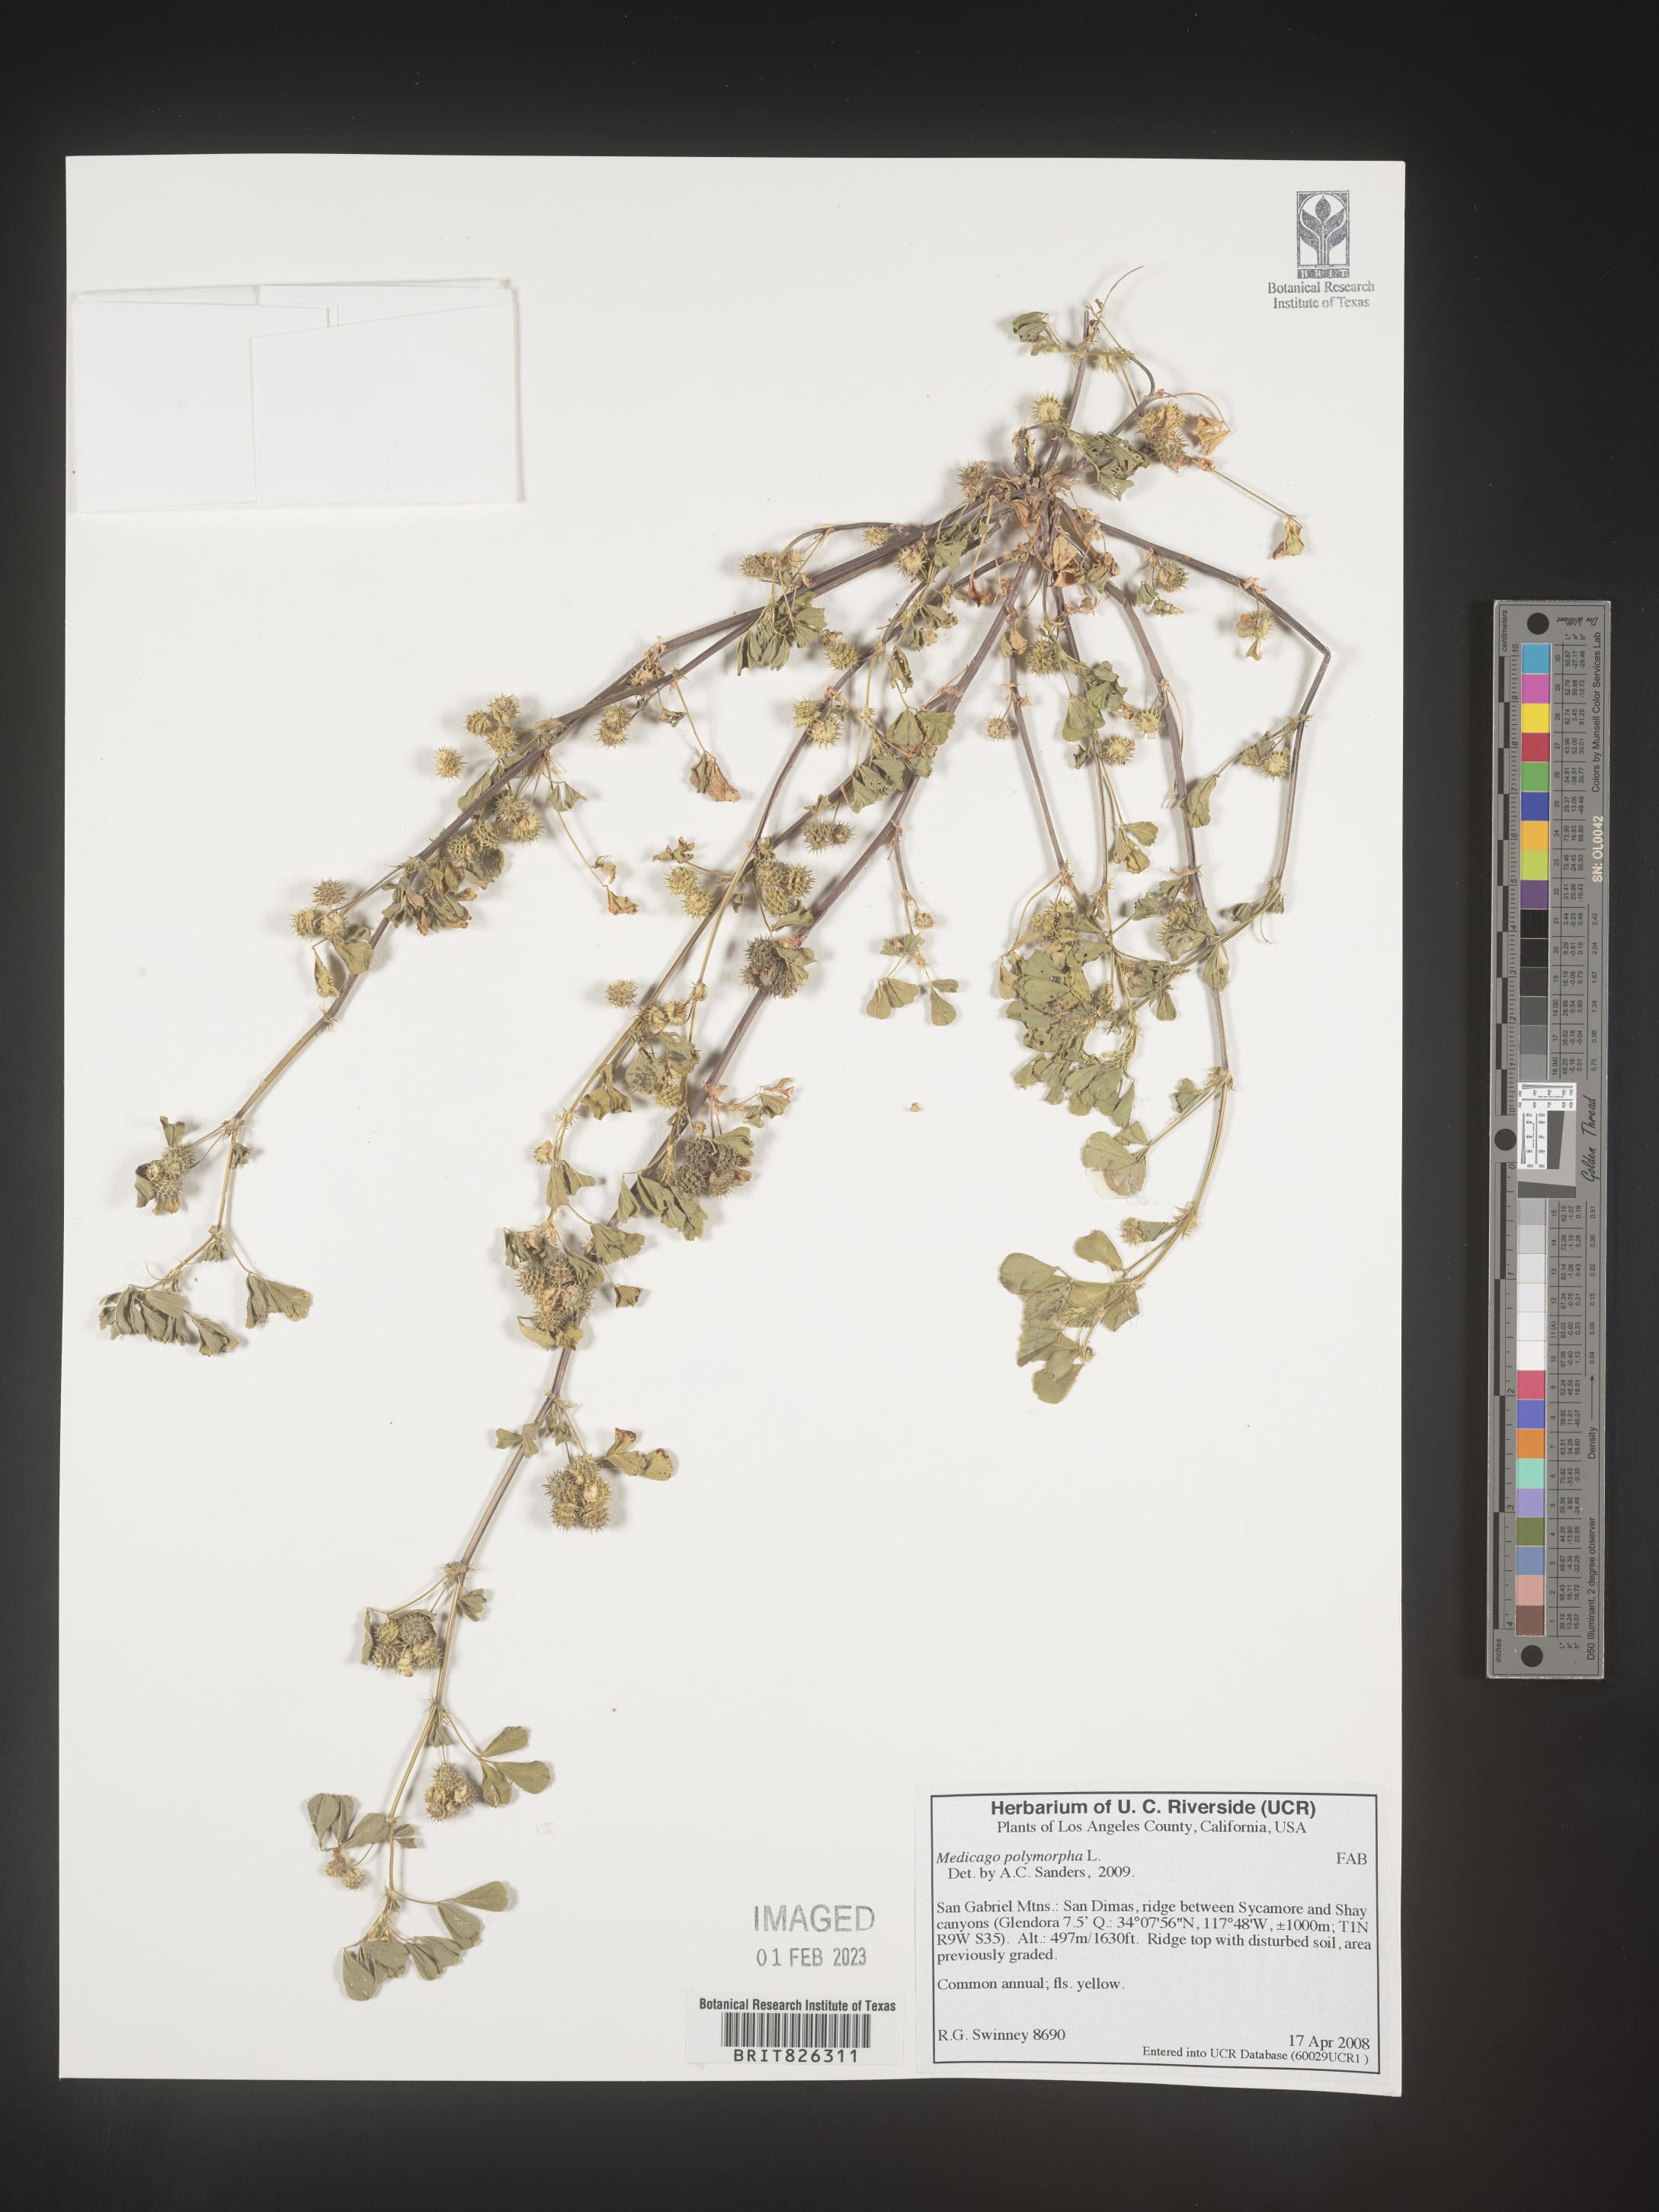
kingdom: Plantae
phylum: Tracheophyta
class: Magnoliopsida
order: Fabales
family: Fabaceae
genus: Medicago
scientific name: Medicago polymorpha
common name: Burclover
